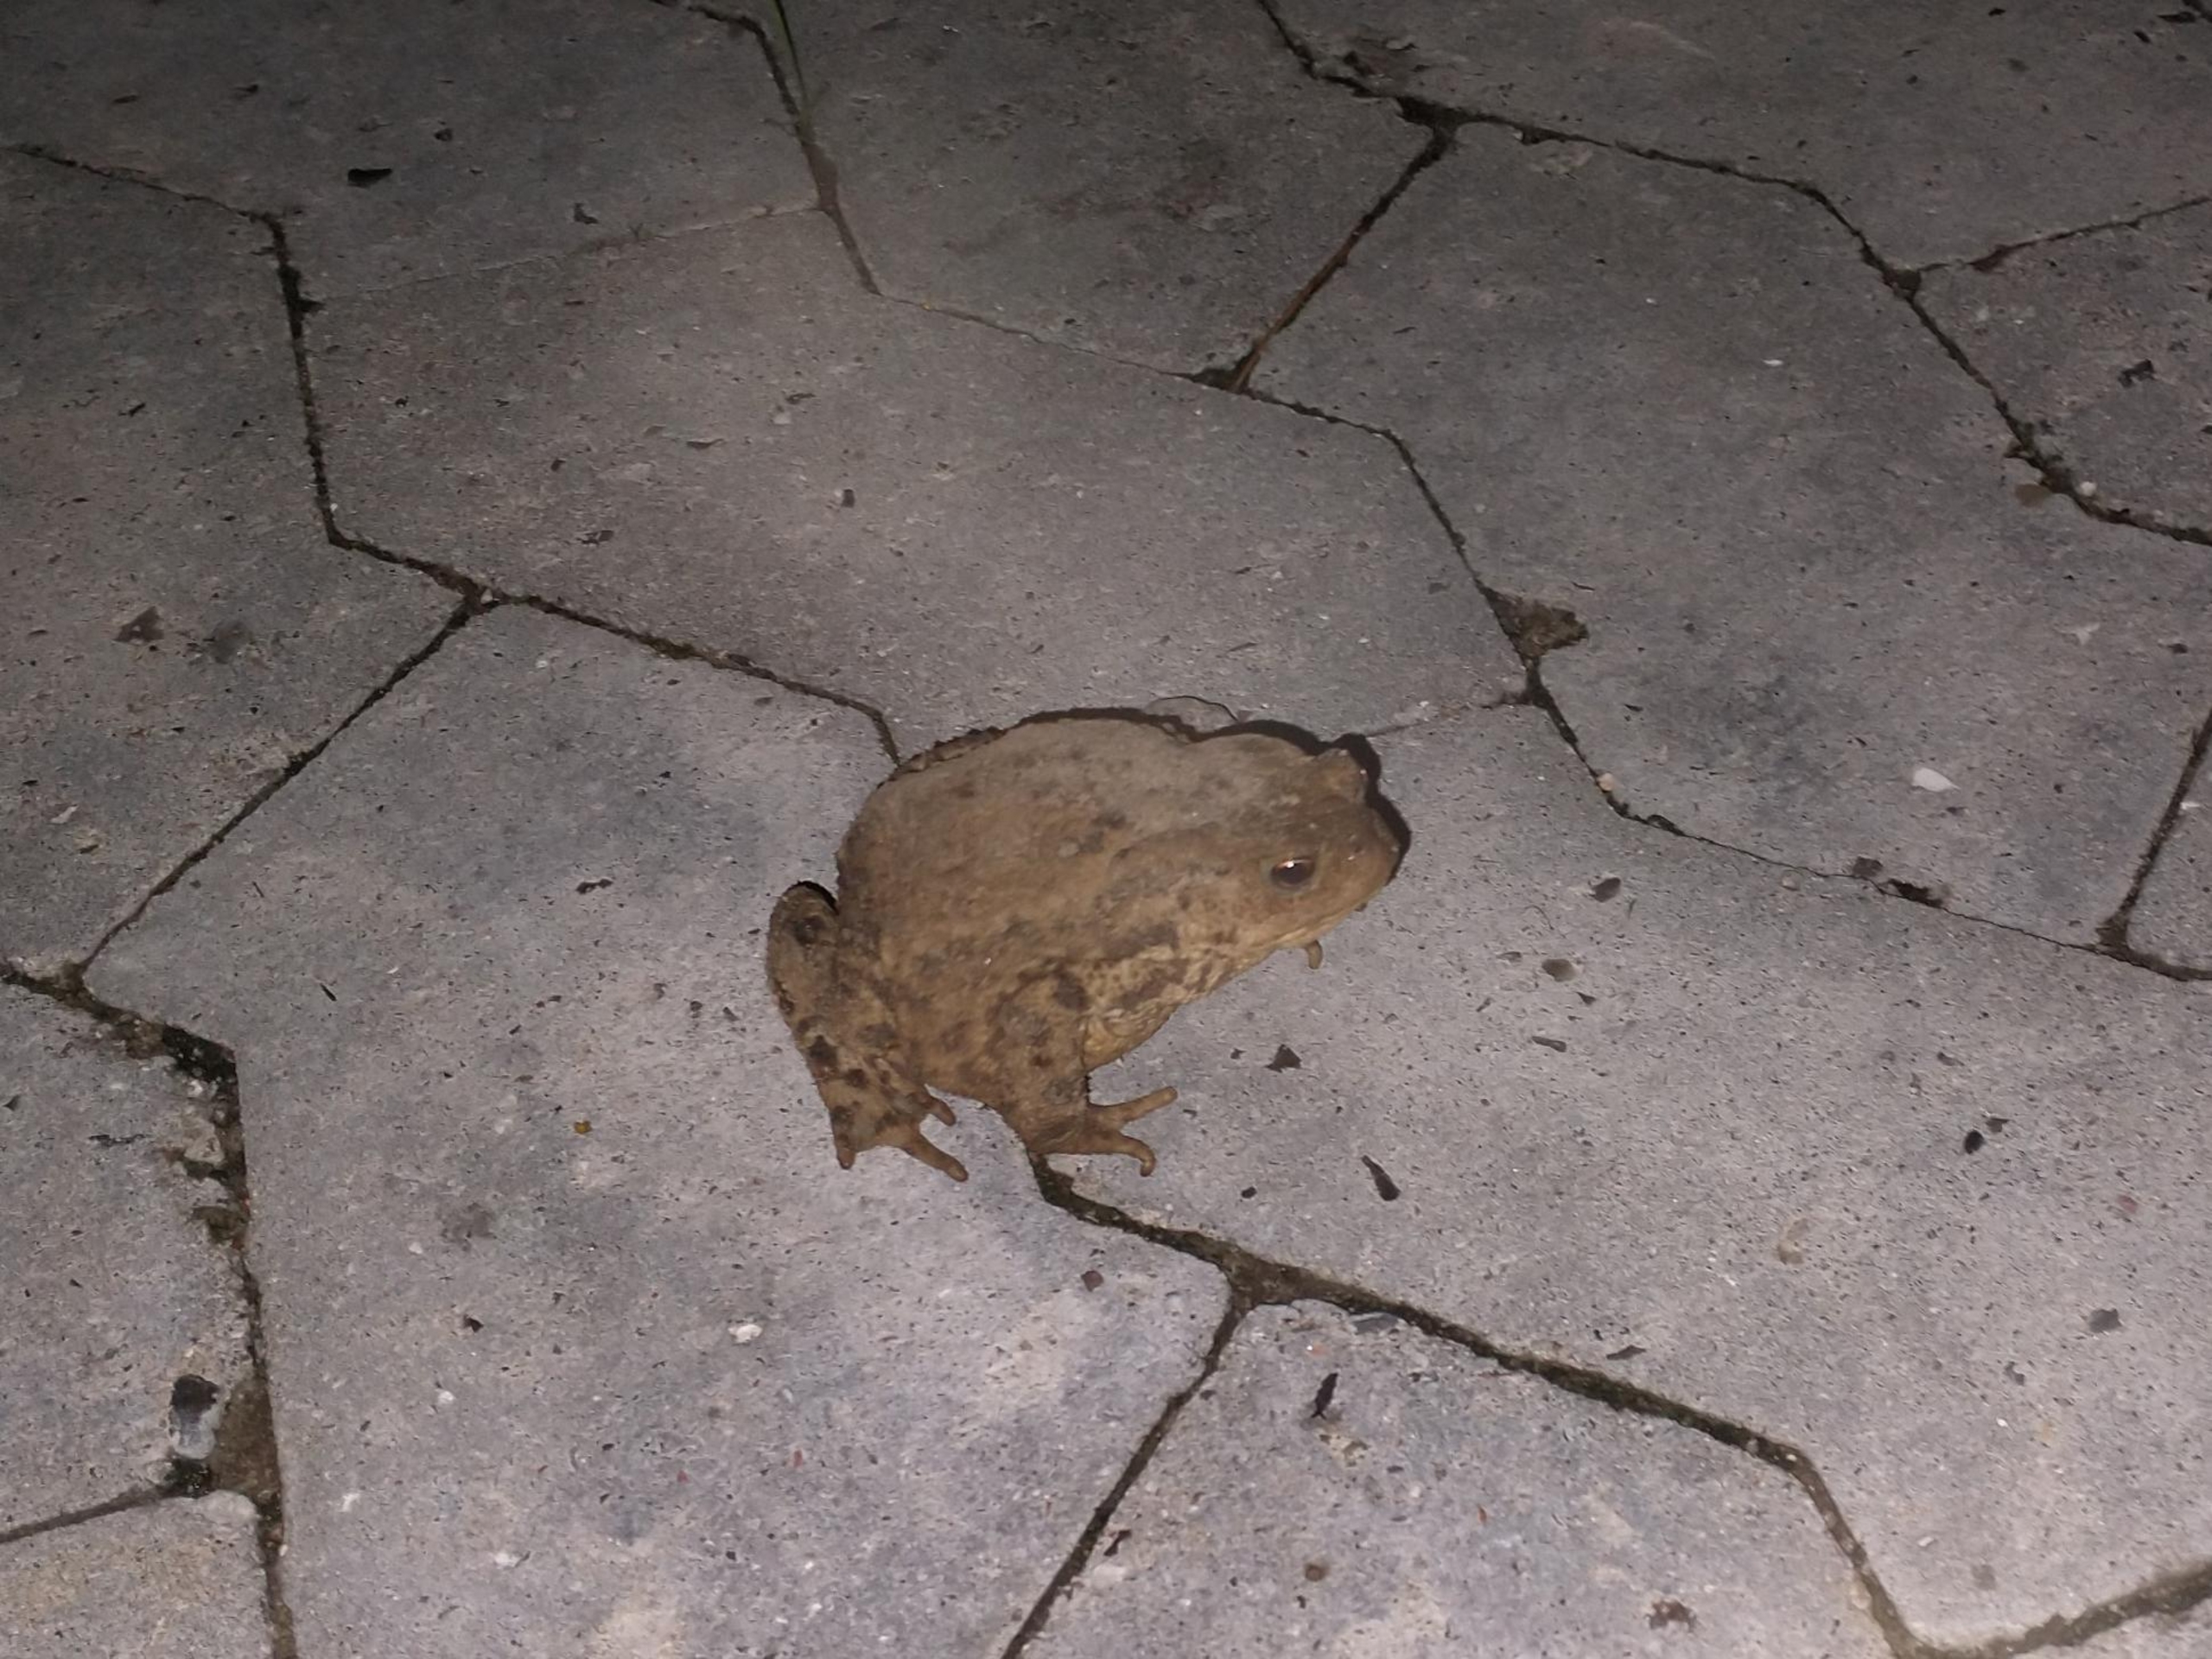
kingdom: Animalia
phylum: Chordata
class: Amphibia
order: Anura
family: Bufonidae
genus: Bufo
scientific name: Bufo bufo
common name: Skrubtudse
